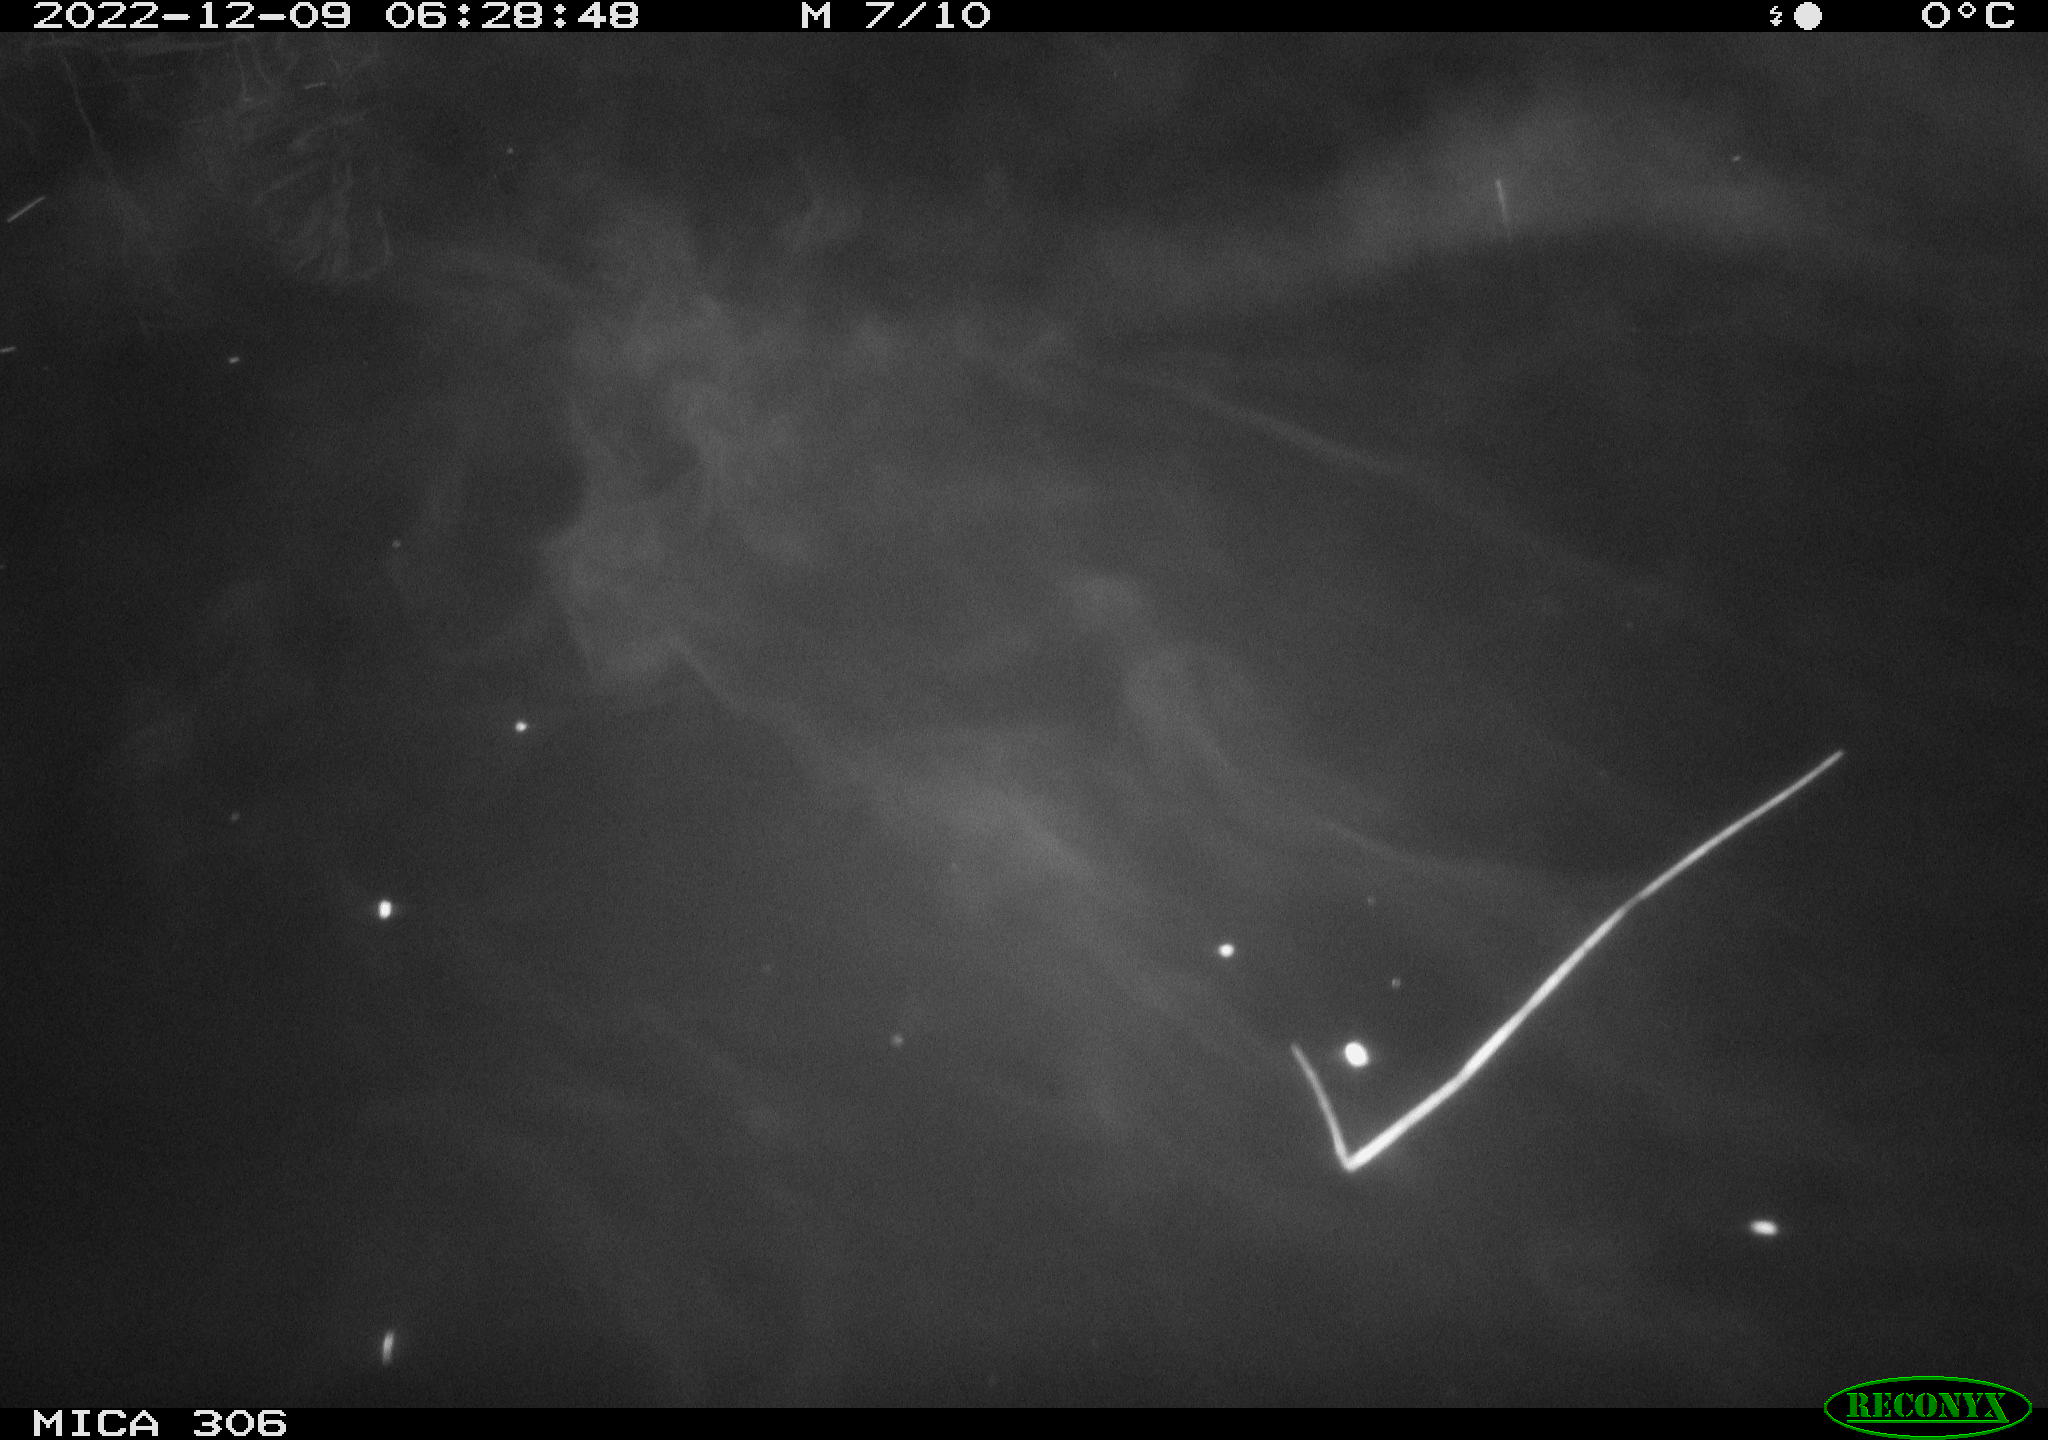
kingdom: Animalia
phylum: Chordata
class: Mammalia
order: Rodentia
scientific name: Rodentia
